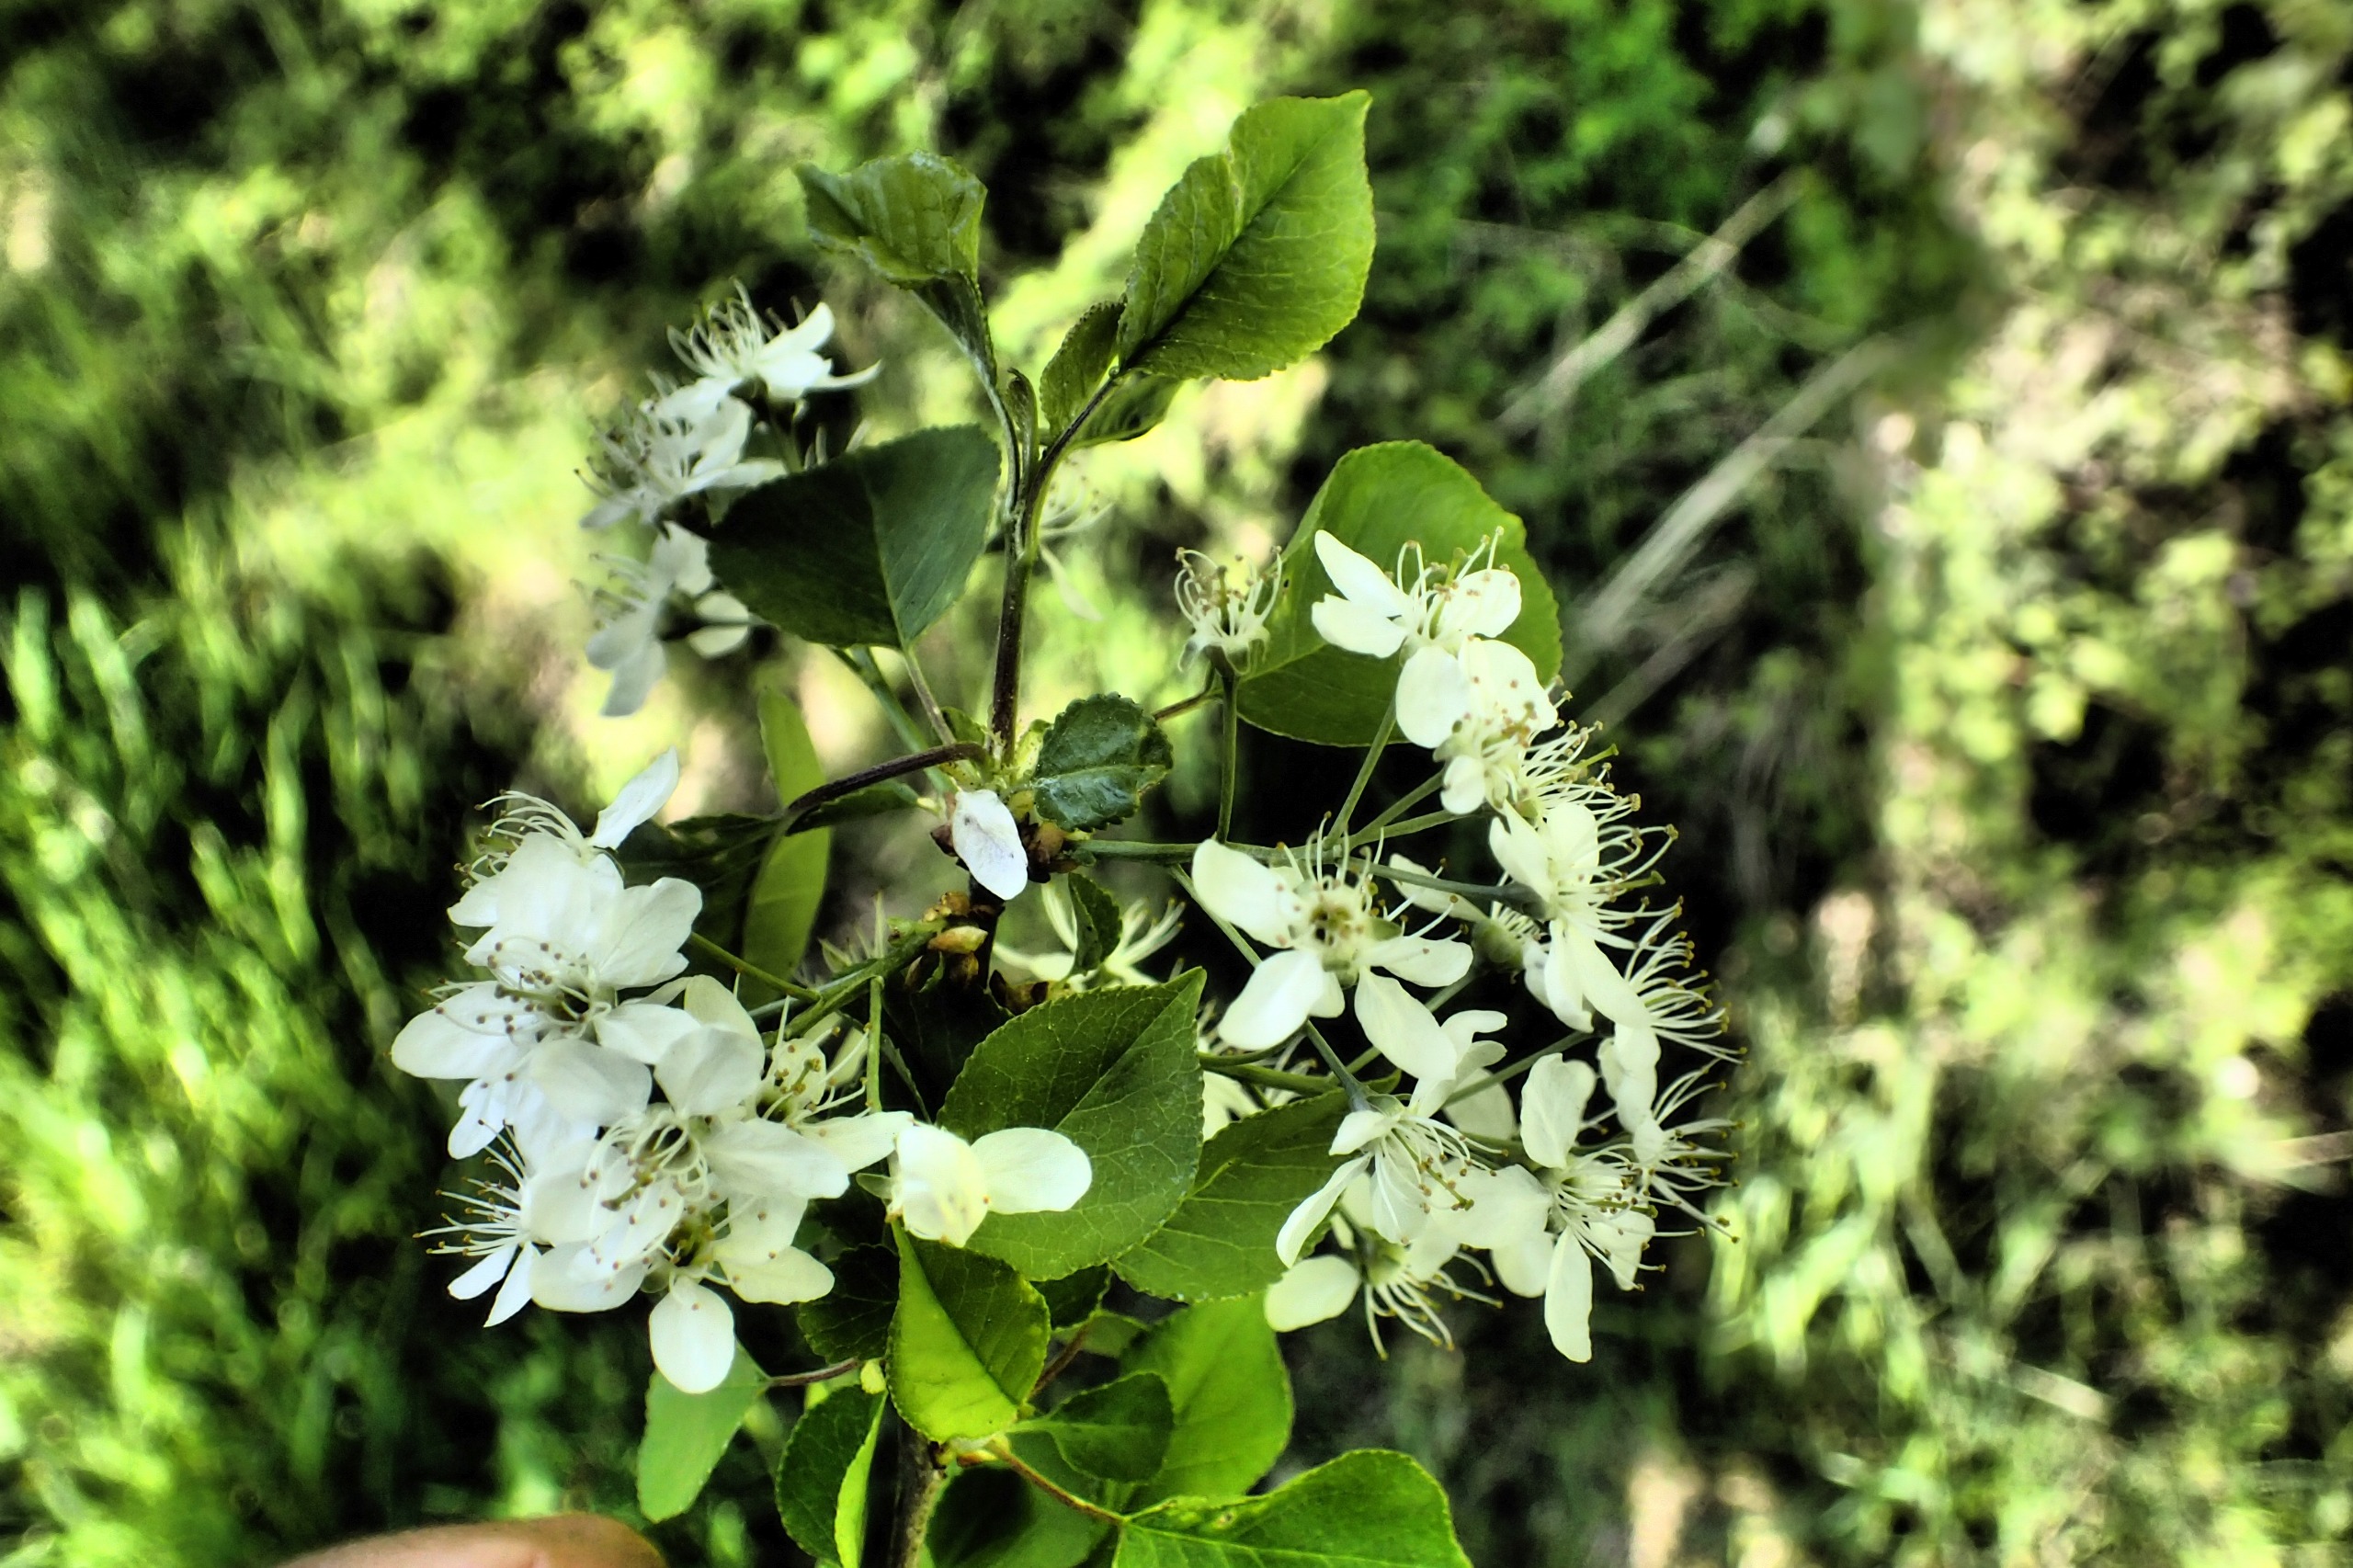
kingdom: Plantae
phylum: Tracheophyta
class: Magnoliopsida
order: Rosales
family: Rosaceae
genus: Prunus
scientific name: Prunus mahaleb
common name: Weichsel
